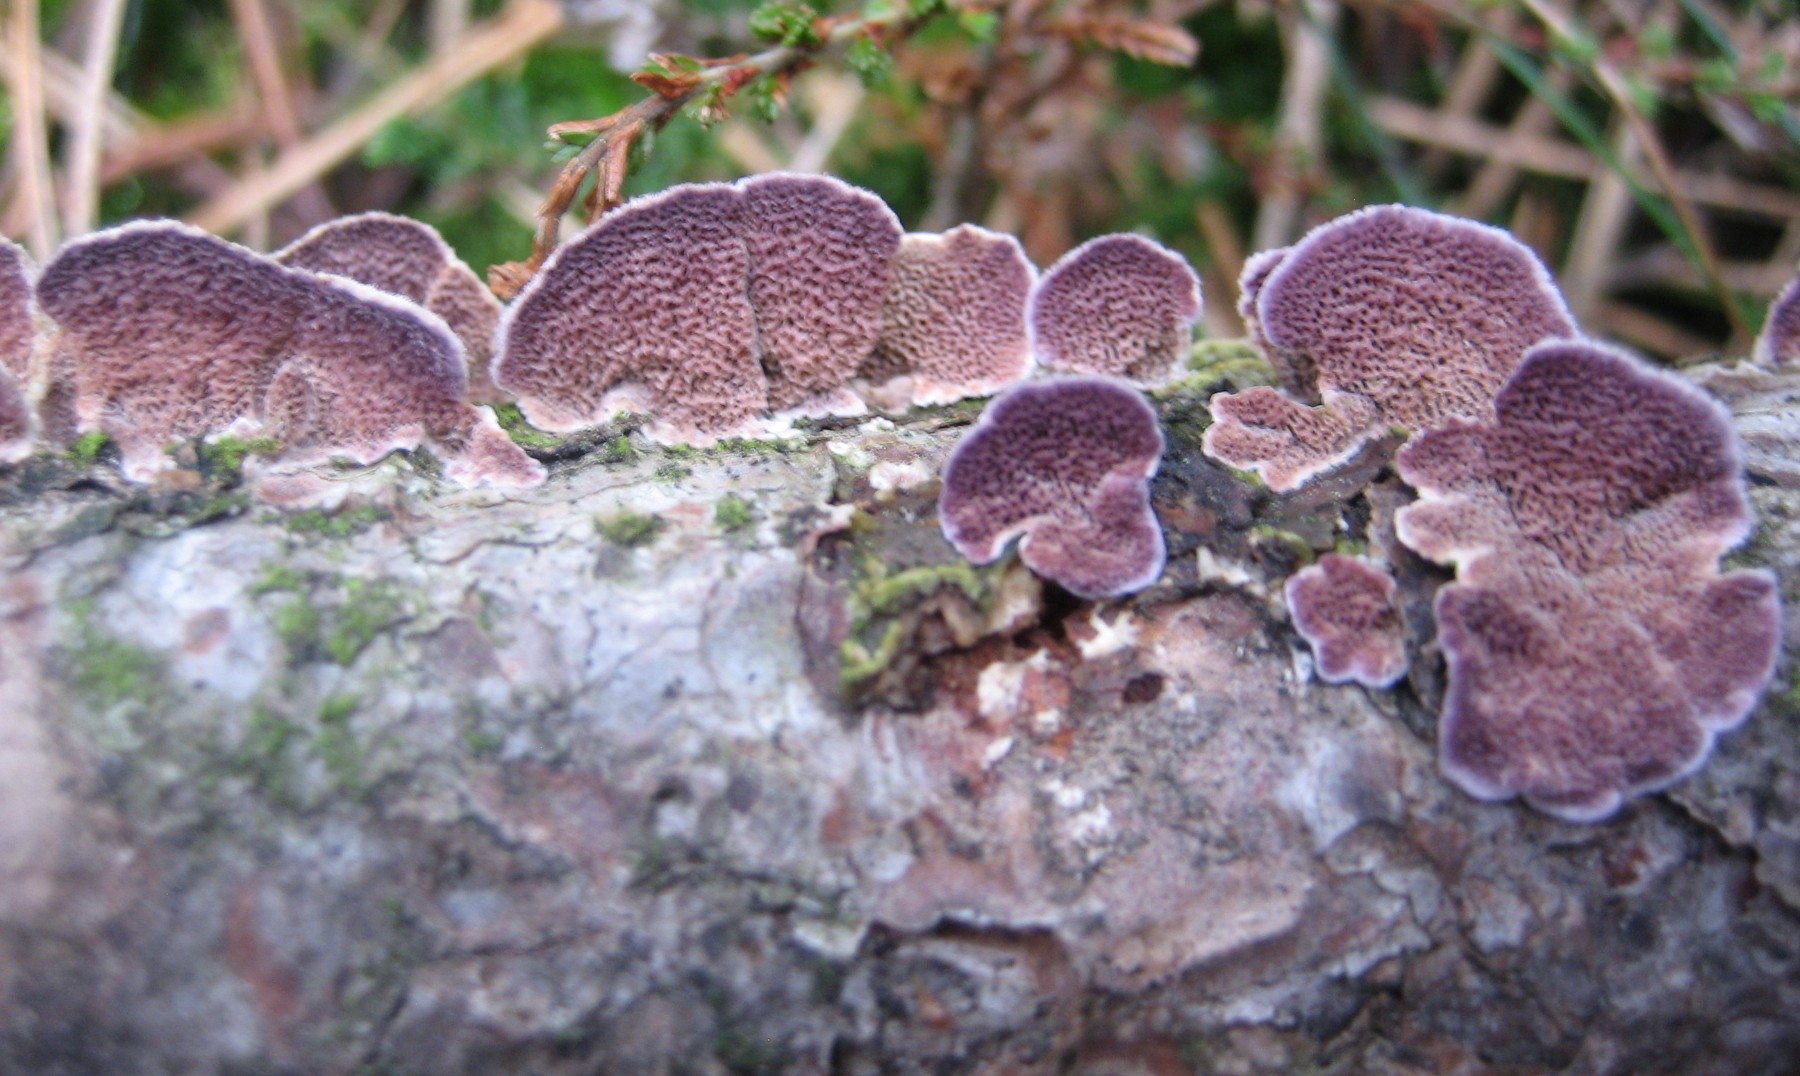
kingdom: Fungi
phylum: Basidiomycota
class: Agaricomycetes
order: Hymenochaetales
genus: Trichaptum
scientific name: Trichaptum abietinum
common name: almindelig violporesvamp
